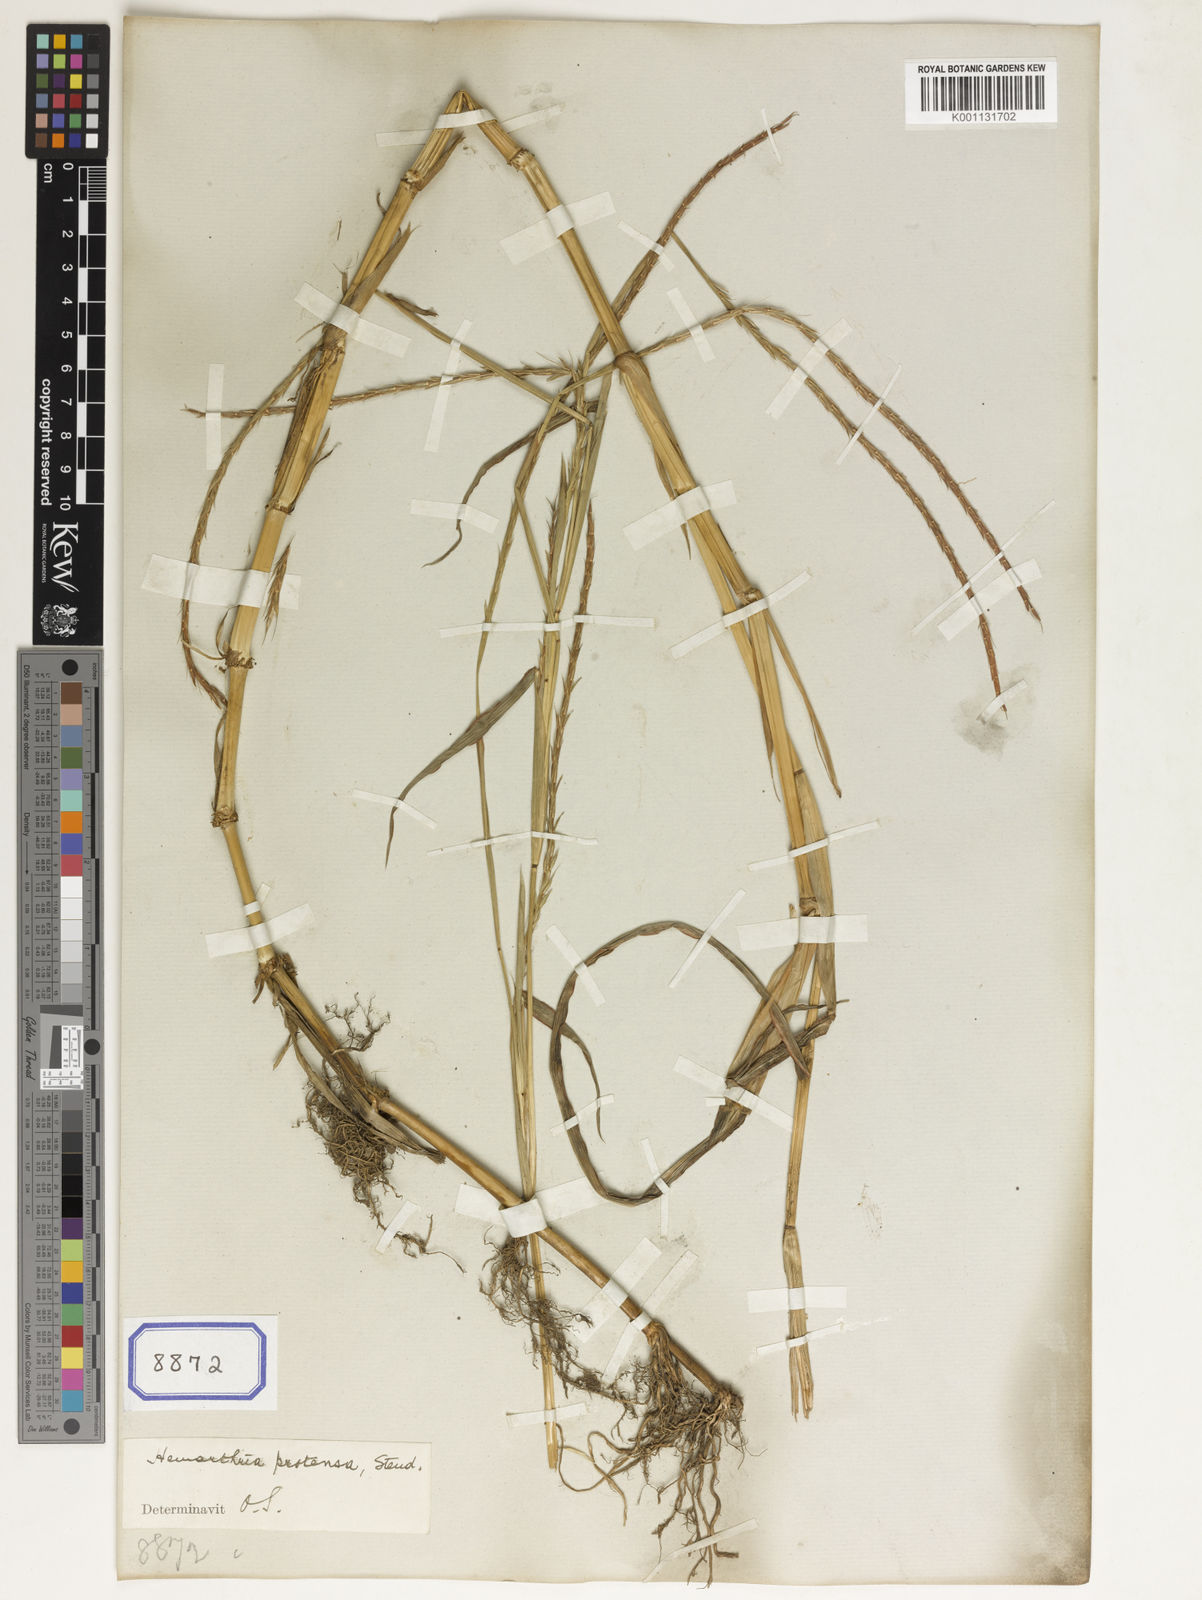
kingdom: Plantae
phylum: Tracheophyta
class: Liliopsida
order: Poales
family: Poaceae
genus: Hemarthria
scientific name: Hemarthria
